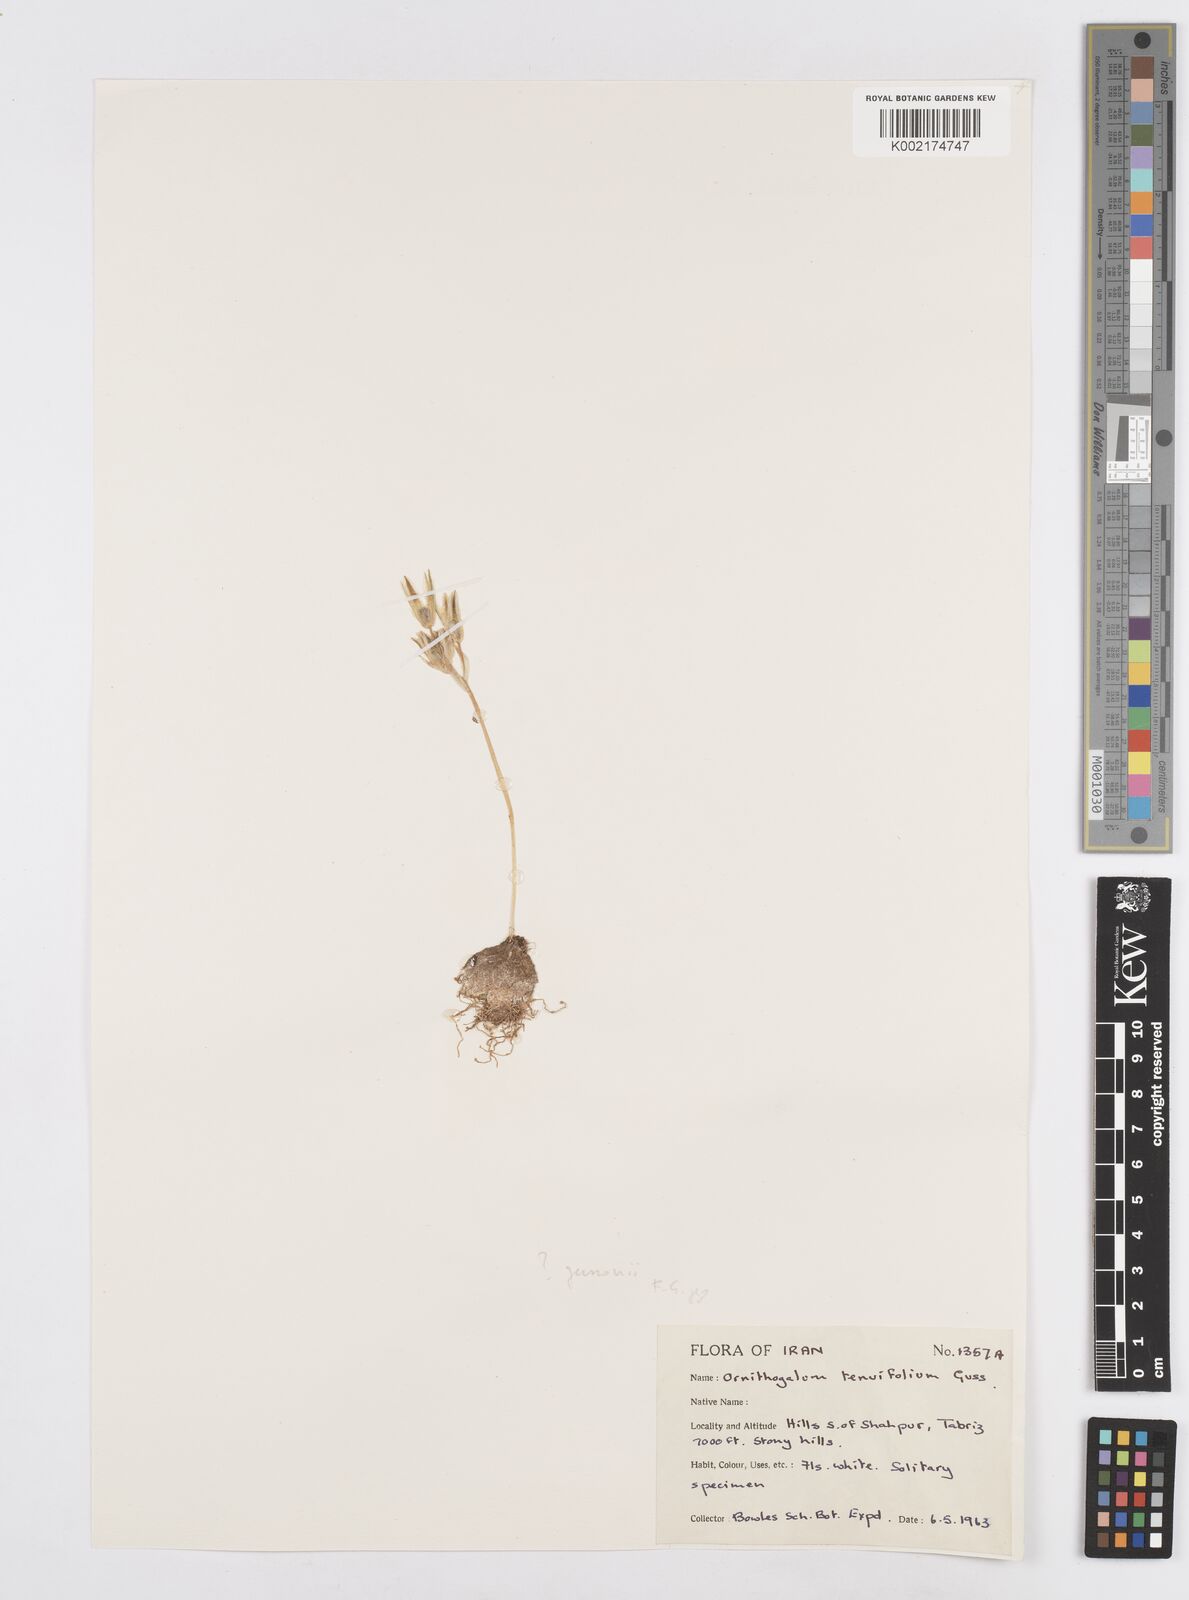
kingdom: Plantae
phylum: Tracheophyta
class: Liliopsida
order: Asparagales
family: Asparagaceae
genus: Ornithogalum
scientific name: Ornithogalum gussonei
